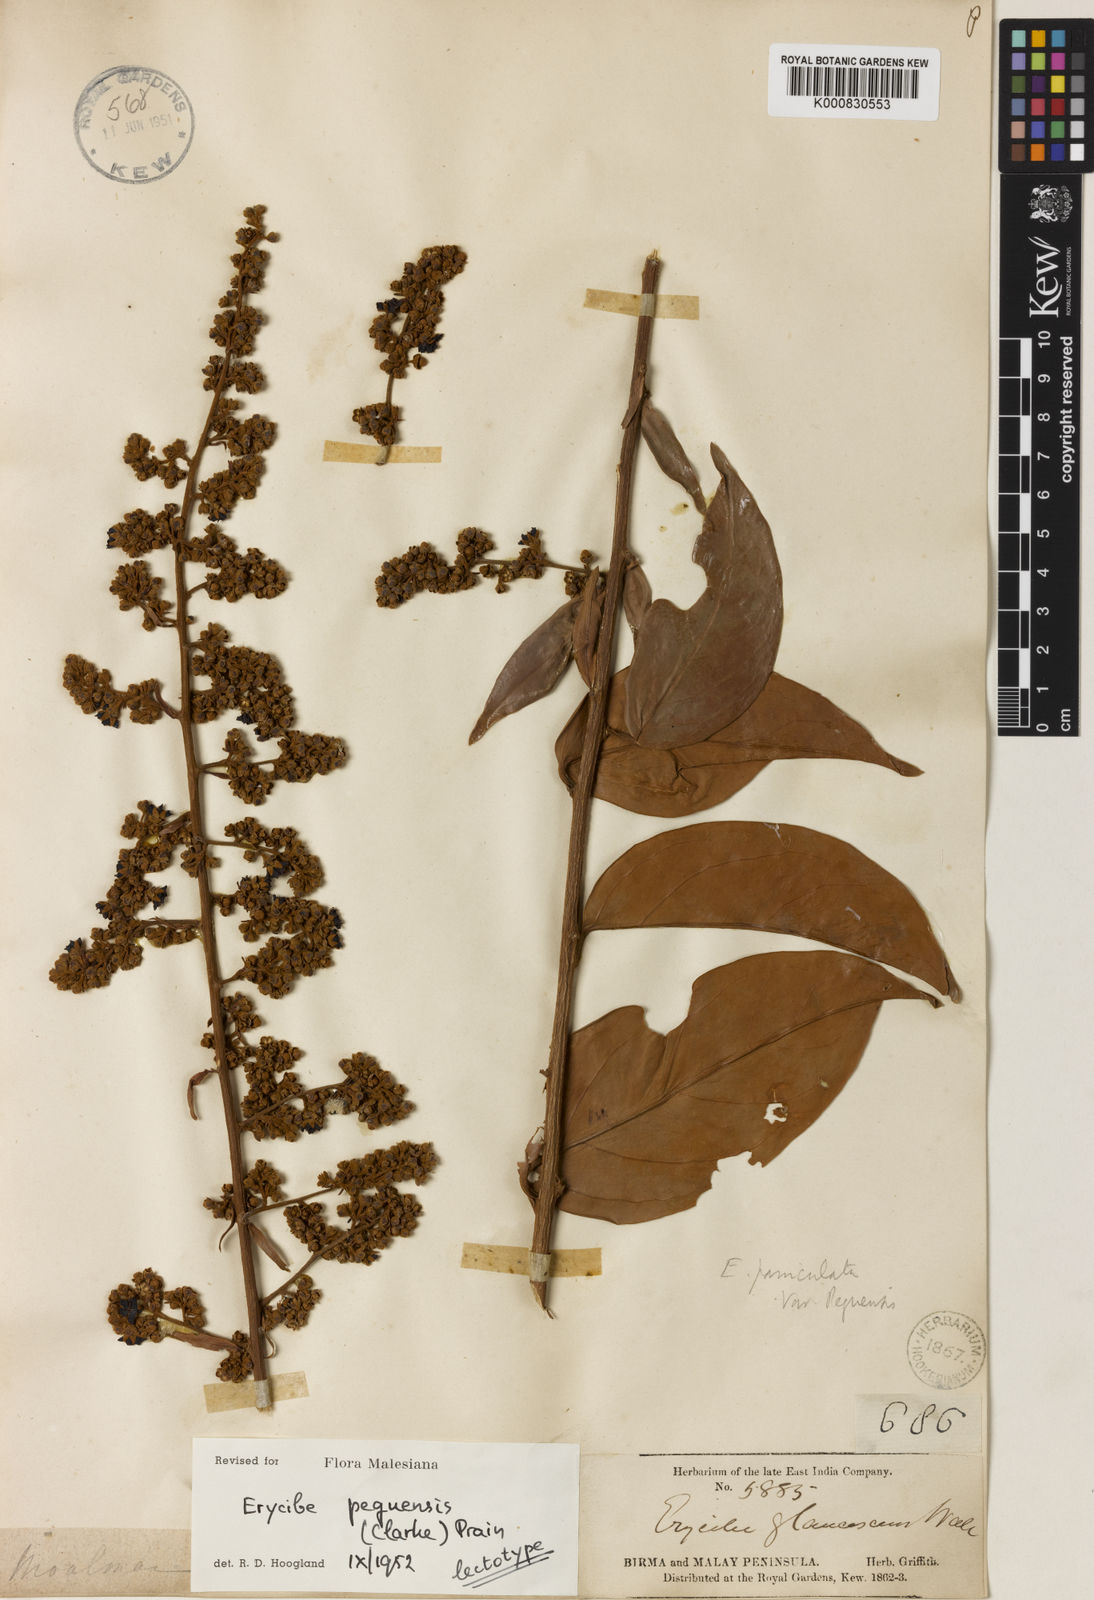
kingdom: Plantae
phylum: Tracheophyta
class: Magnoliopsida
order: Solanales
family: Convolvulaceae
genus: Argyreia
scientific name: Argyreia capitiformis
